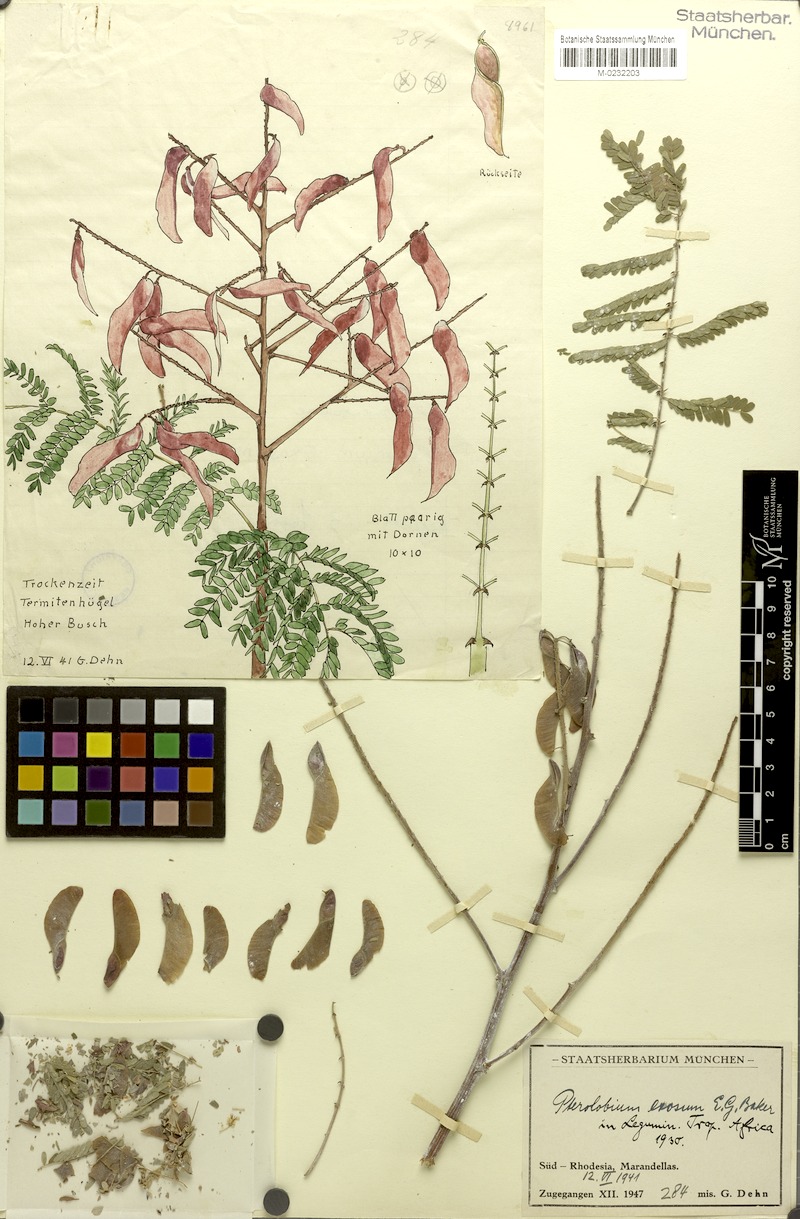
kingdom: Plantae
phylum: Tracheophyta
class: Magnoliopsida
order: Fabales
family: Fabaceae
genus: Pterolobium
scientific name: Pterolobium stellatum
